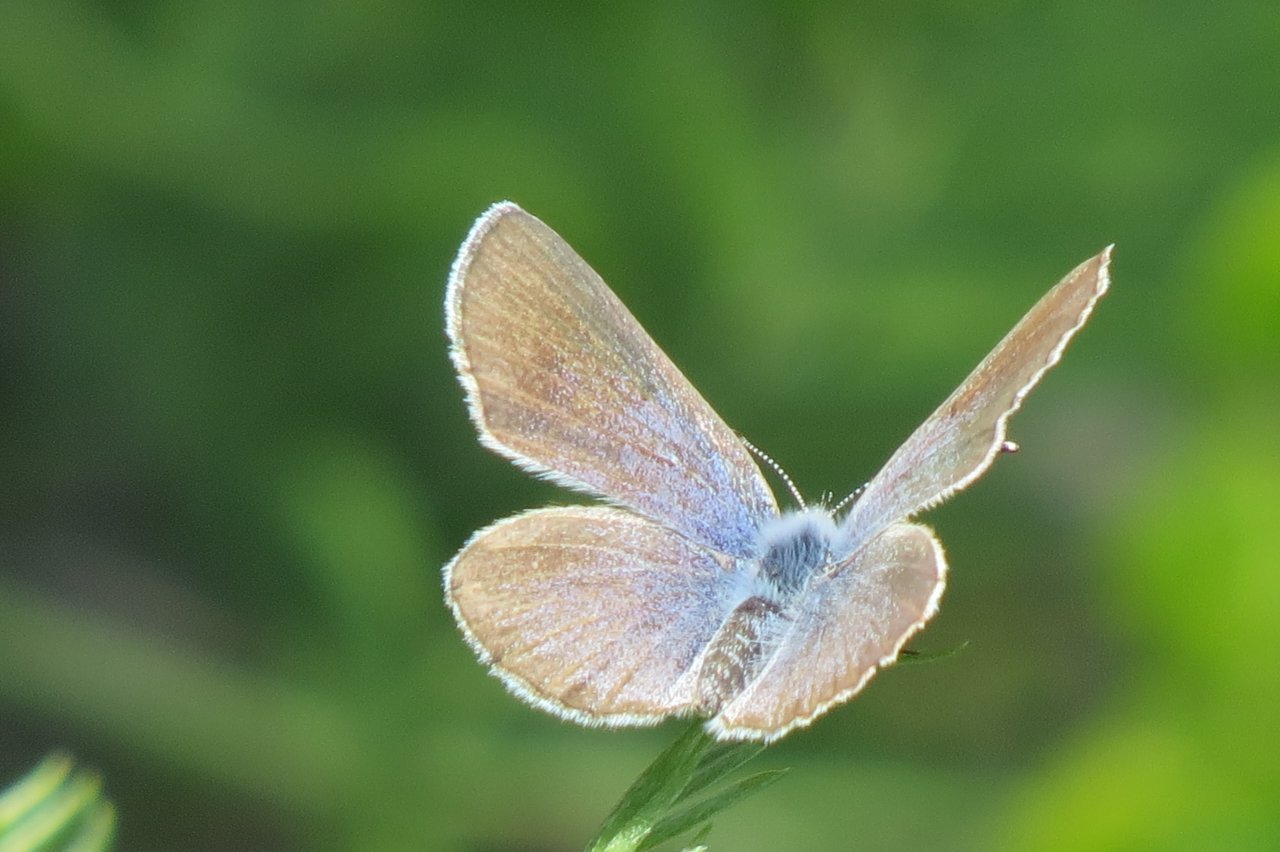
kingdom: Animalia
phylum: Arthropoda
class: Insecta
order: Lepidoptera
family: Lycaenidae
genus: Glaucopsyche
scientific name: Glaucopsyche lygdamus
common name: Silvery Blue
